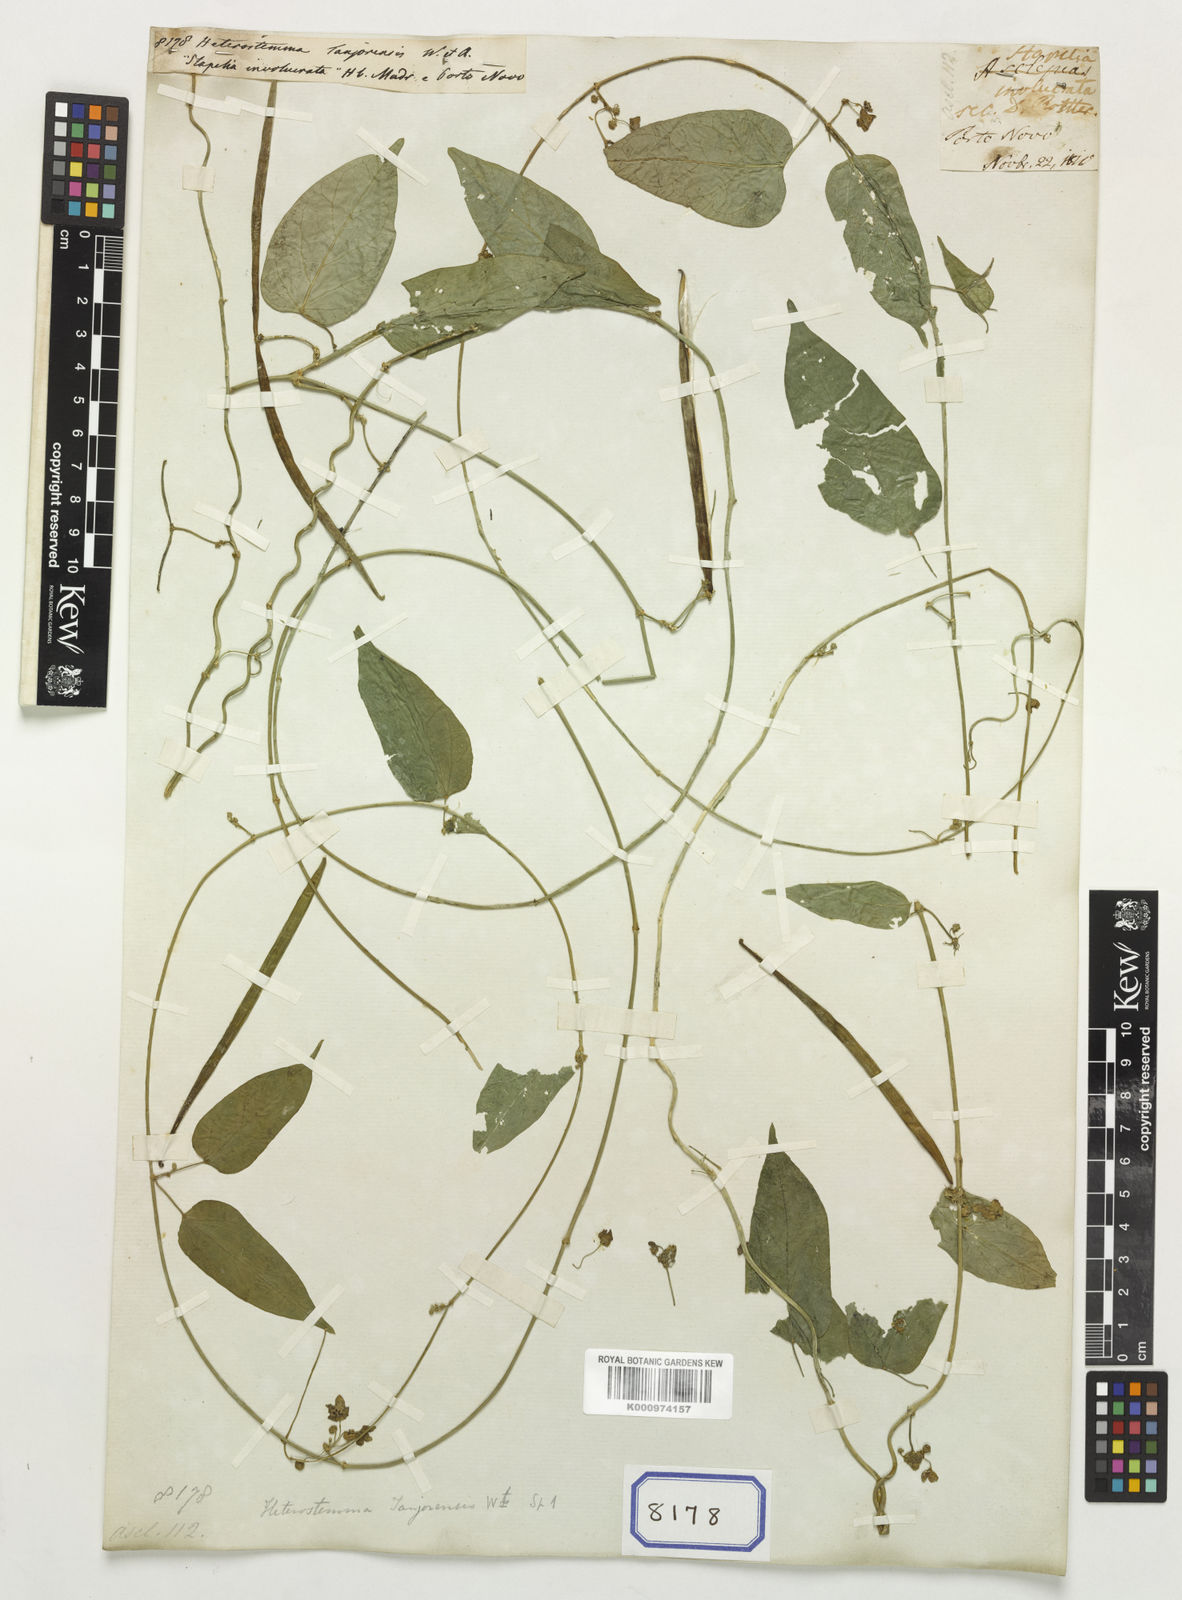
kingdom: Plantae
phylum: Tracheophyta
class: Magnoliopsida
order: Gentianales
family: Apocynaceae
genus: Heterostemma
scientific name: Heterostemma
